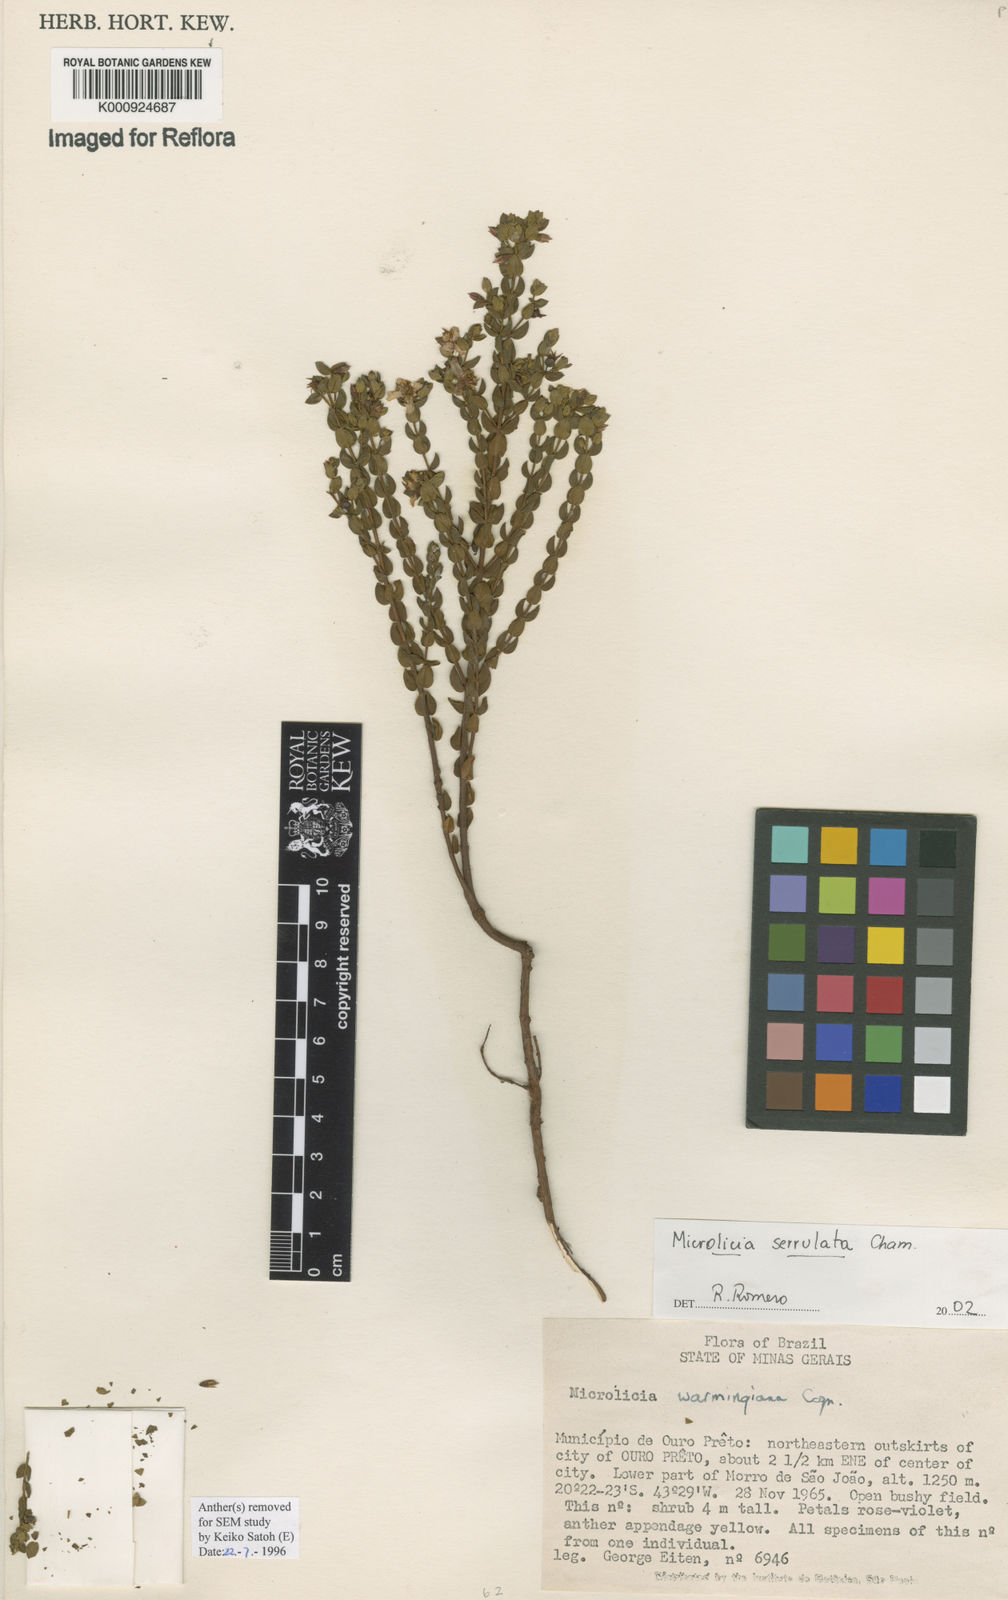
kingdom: Plantae
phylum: Tracheophyta
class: Magnoliopsida
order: Myrtales
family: Melastomataceae
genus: Microlicia
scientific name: Microlicia serrulata
